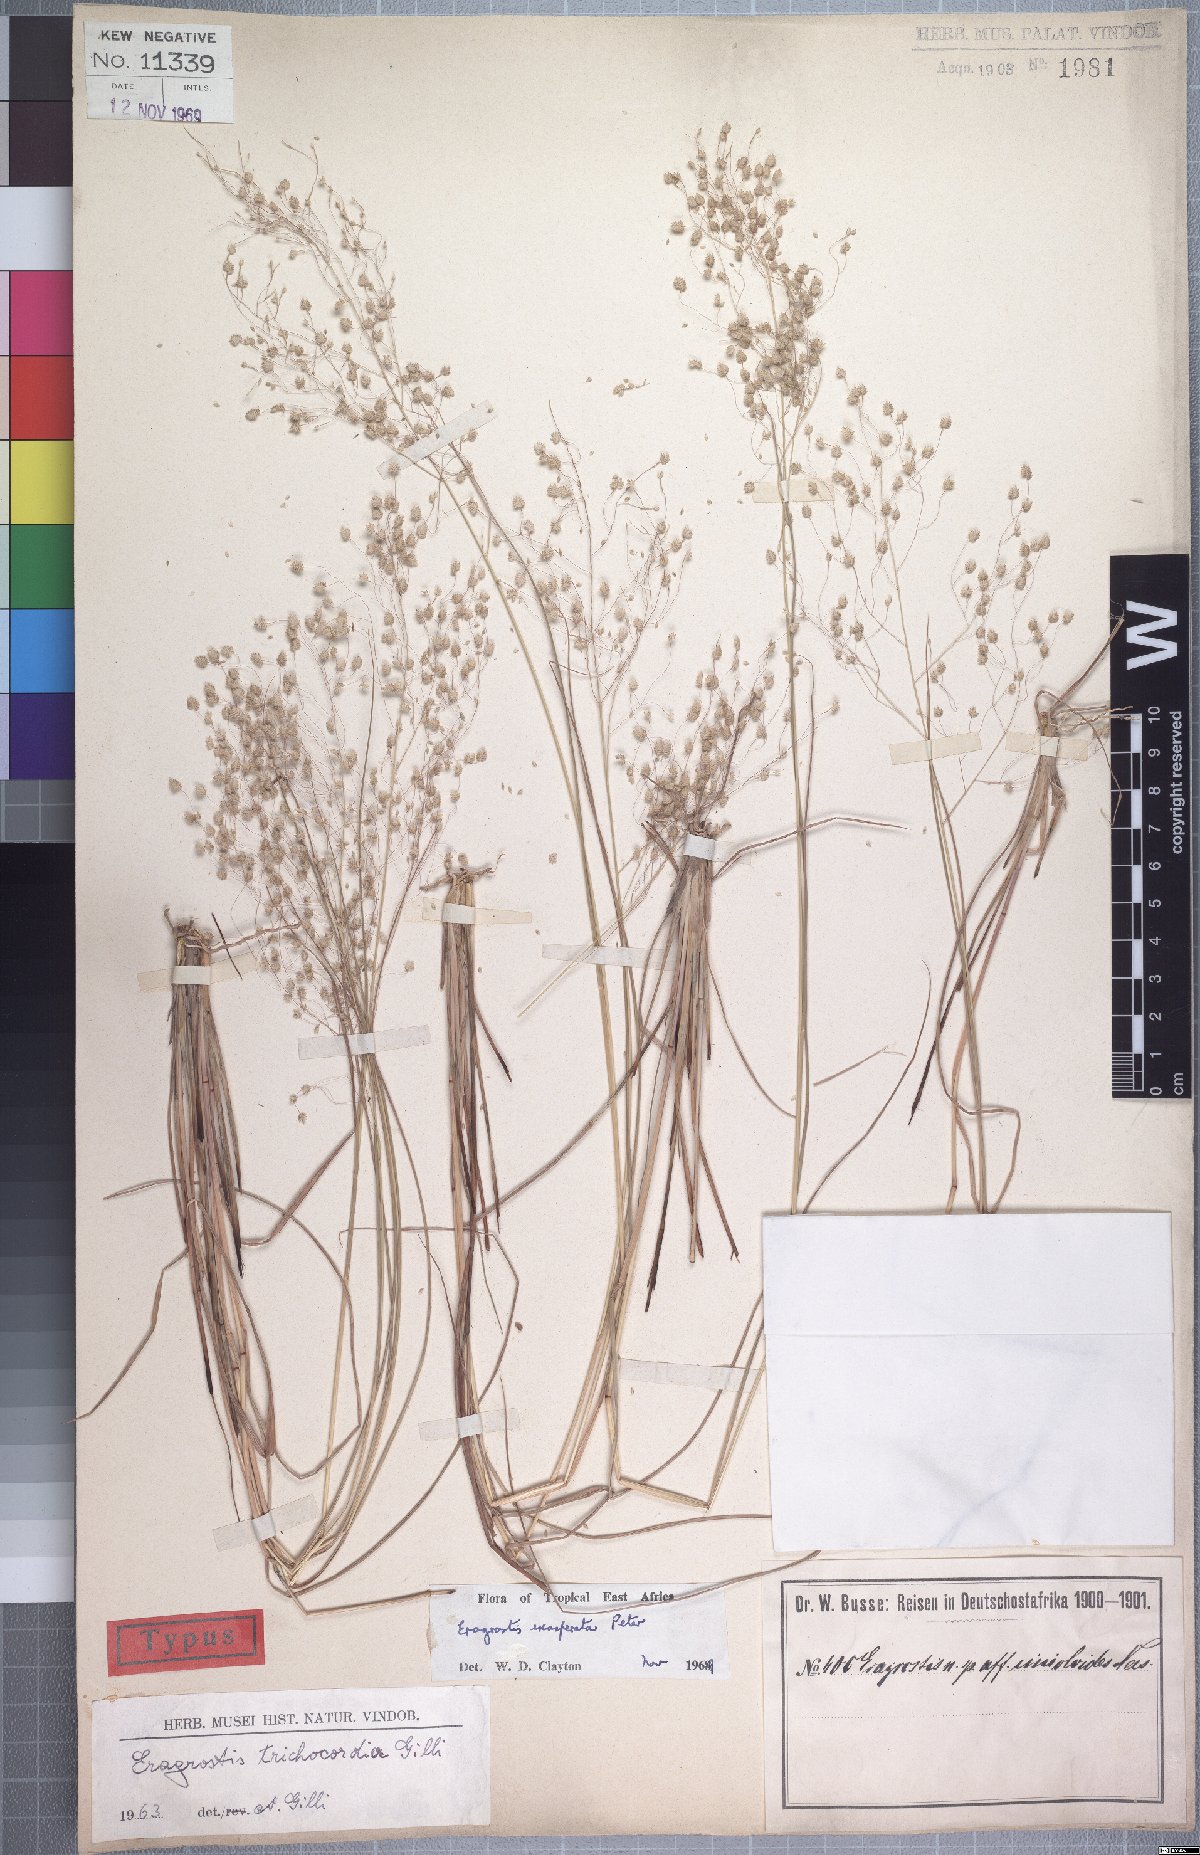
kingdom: Plantae
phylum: Tracheophyta
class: Liliopsida
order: Poales
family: Poaceae
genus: Eragrostis
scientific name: Eragrostis exasperata
